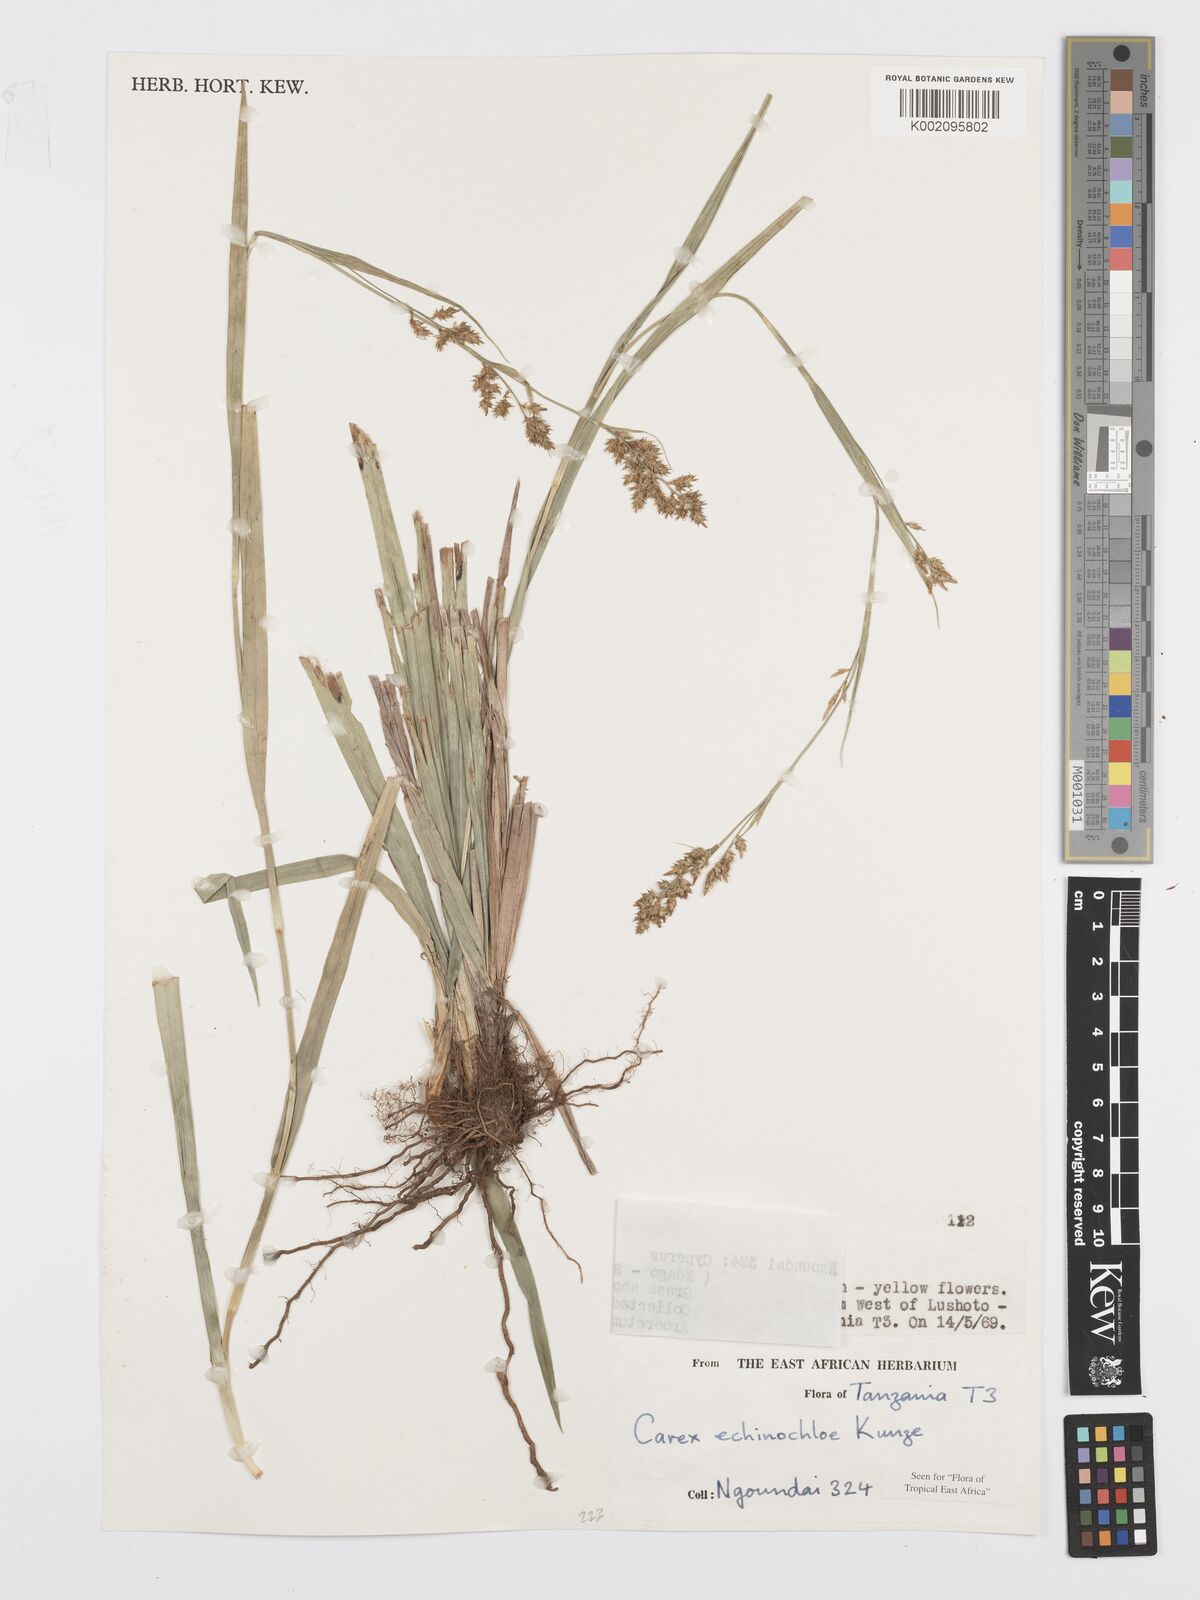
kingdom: Plantae
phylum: Tracheophyta
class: Liliopsida
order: Poales
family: Cyperaceae
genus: Carex
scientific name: Carex echinochloe
